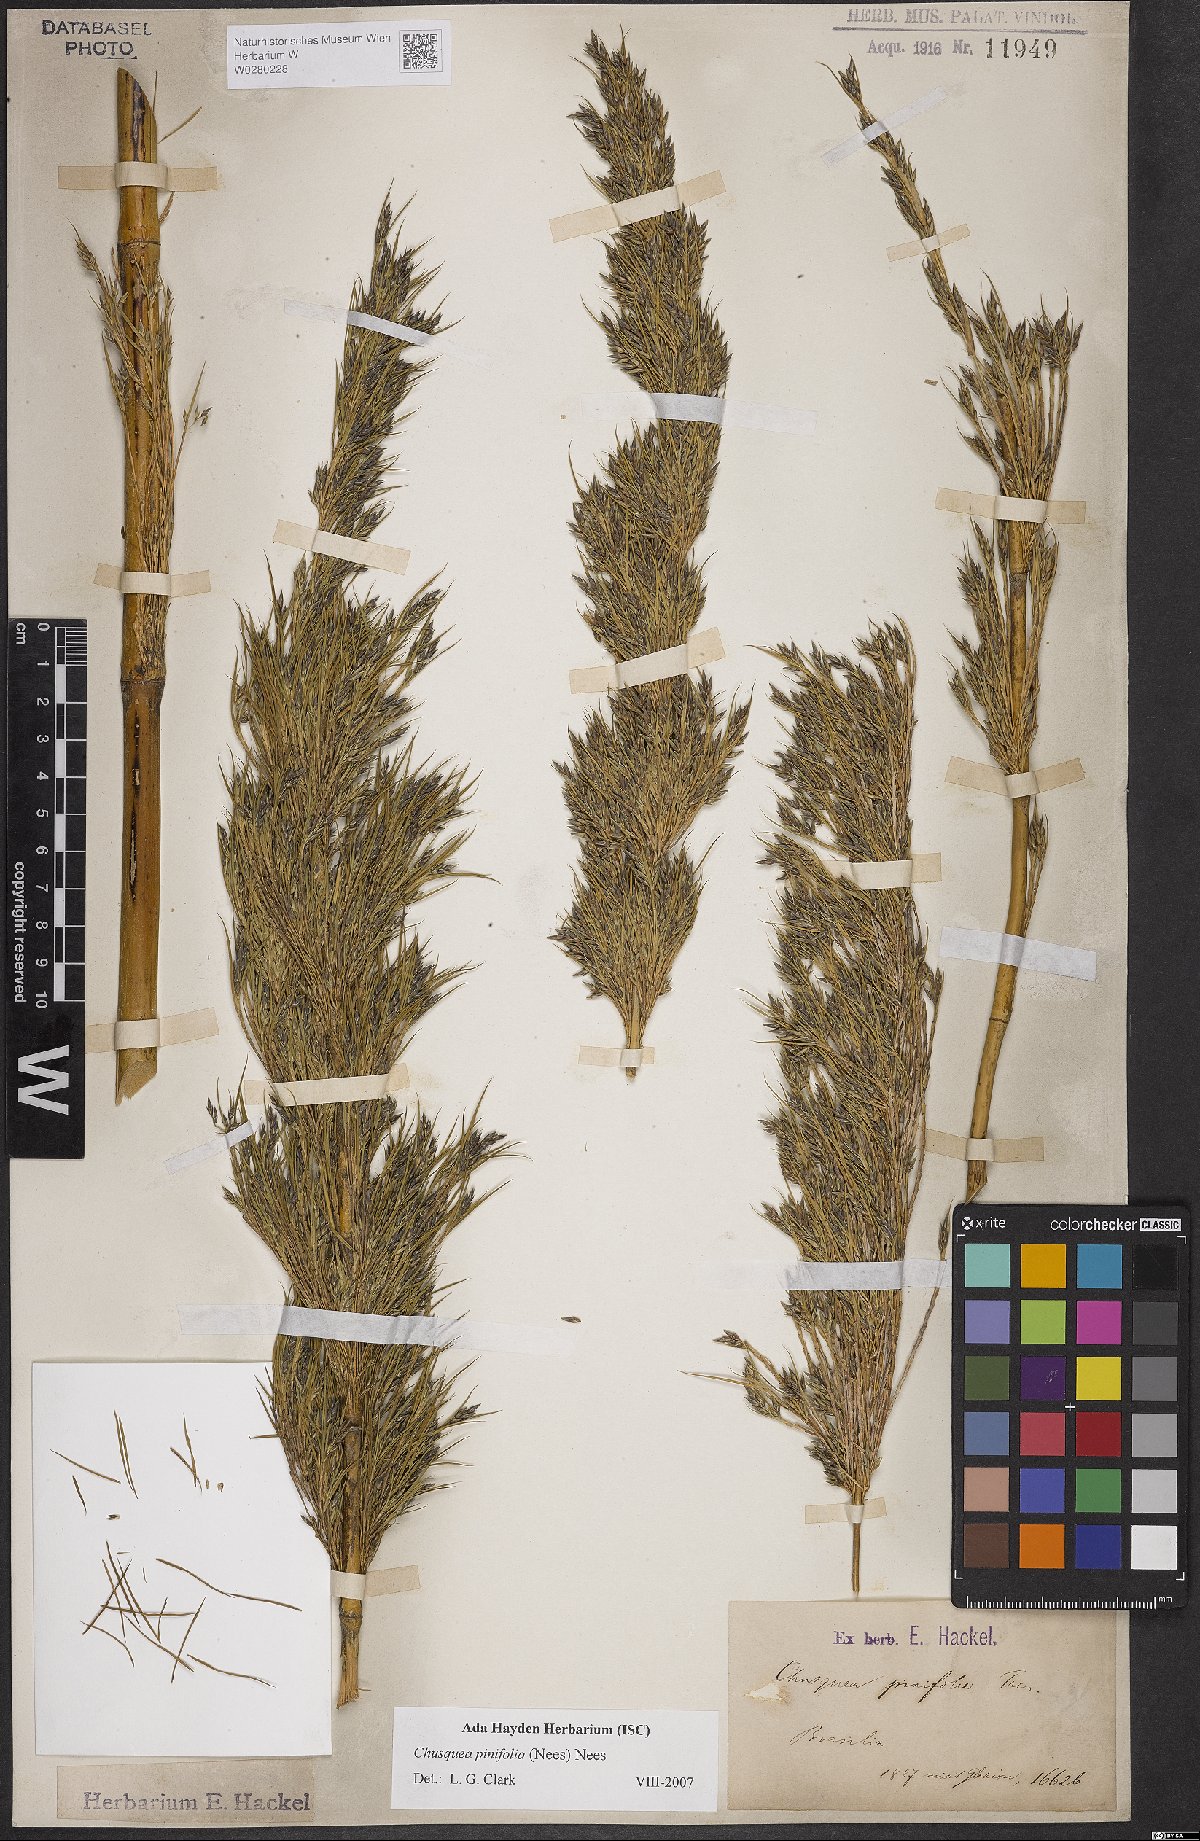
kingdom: Plantae
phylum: Tracheophyta
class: Liliopsida
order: Poales
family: Poaceae
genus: Chusquea
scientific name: Chusquea pinifolia
